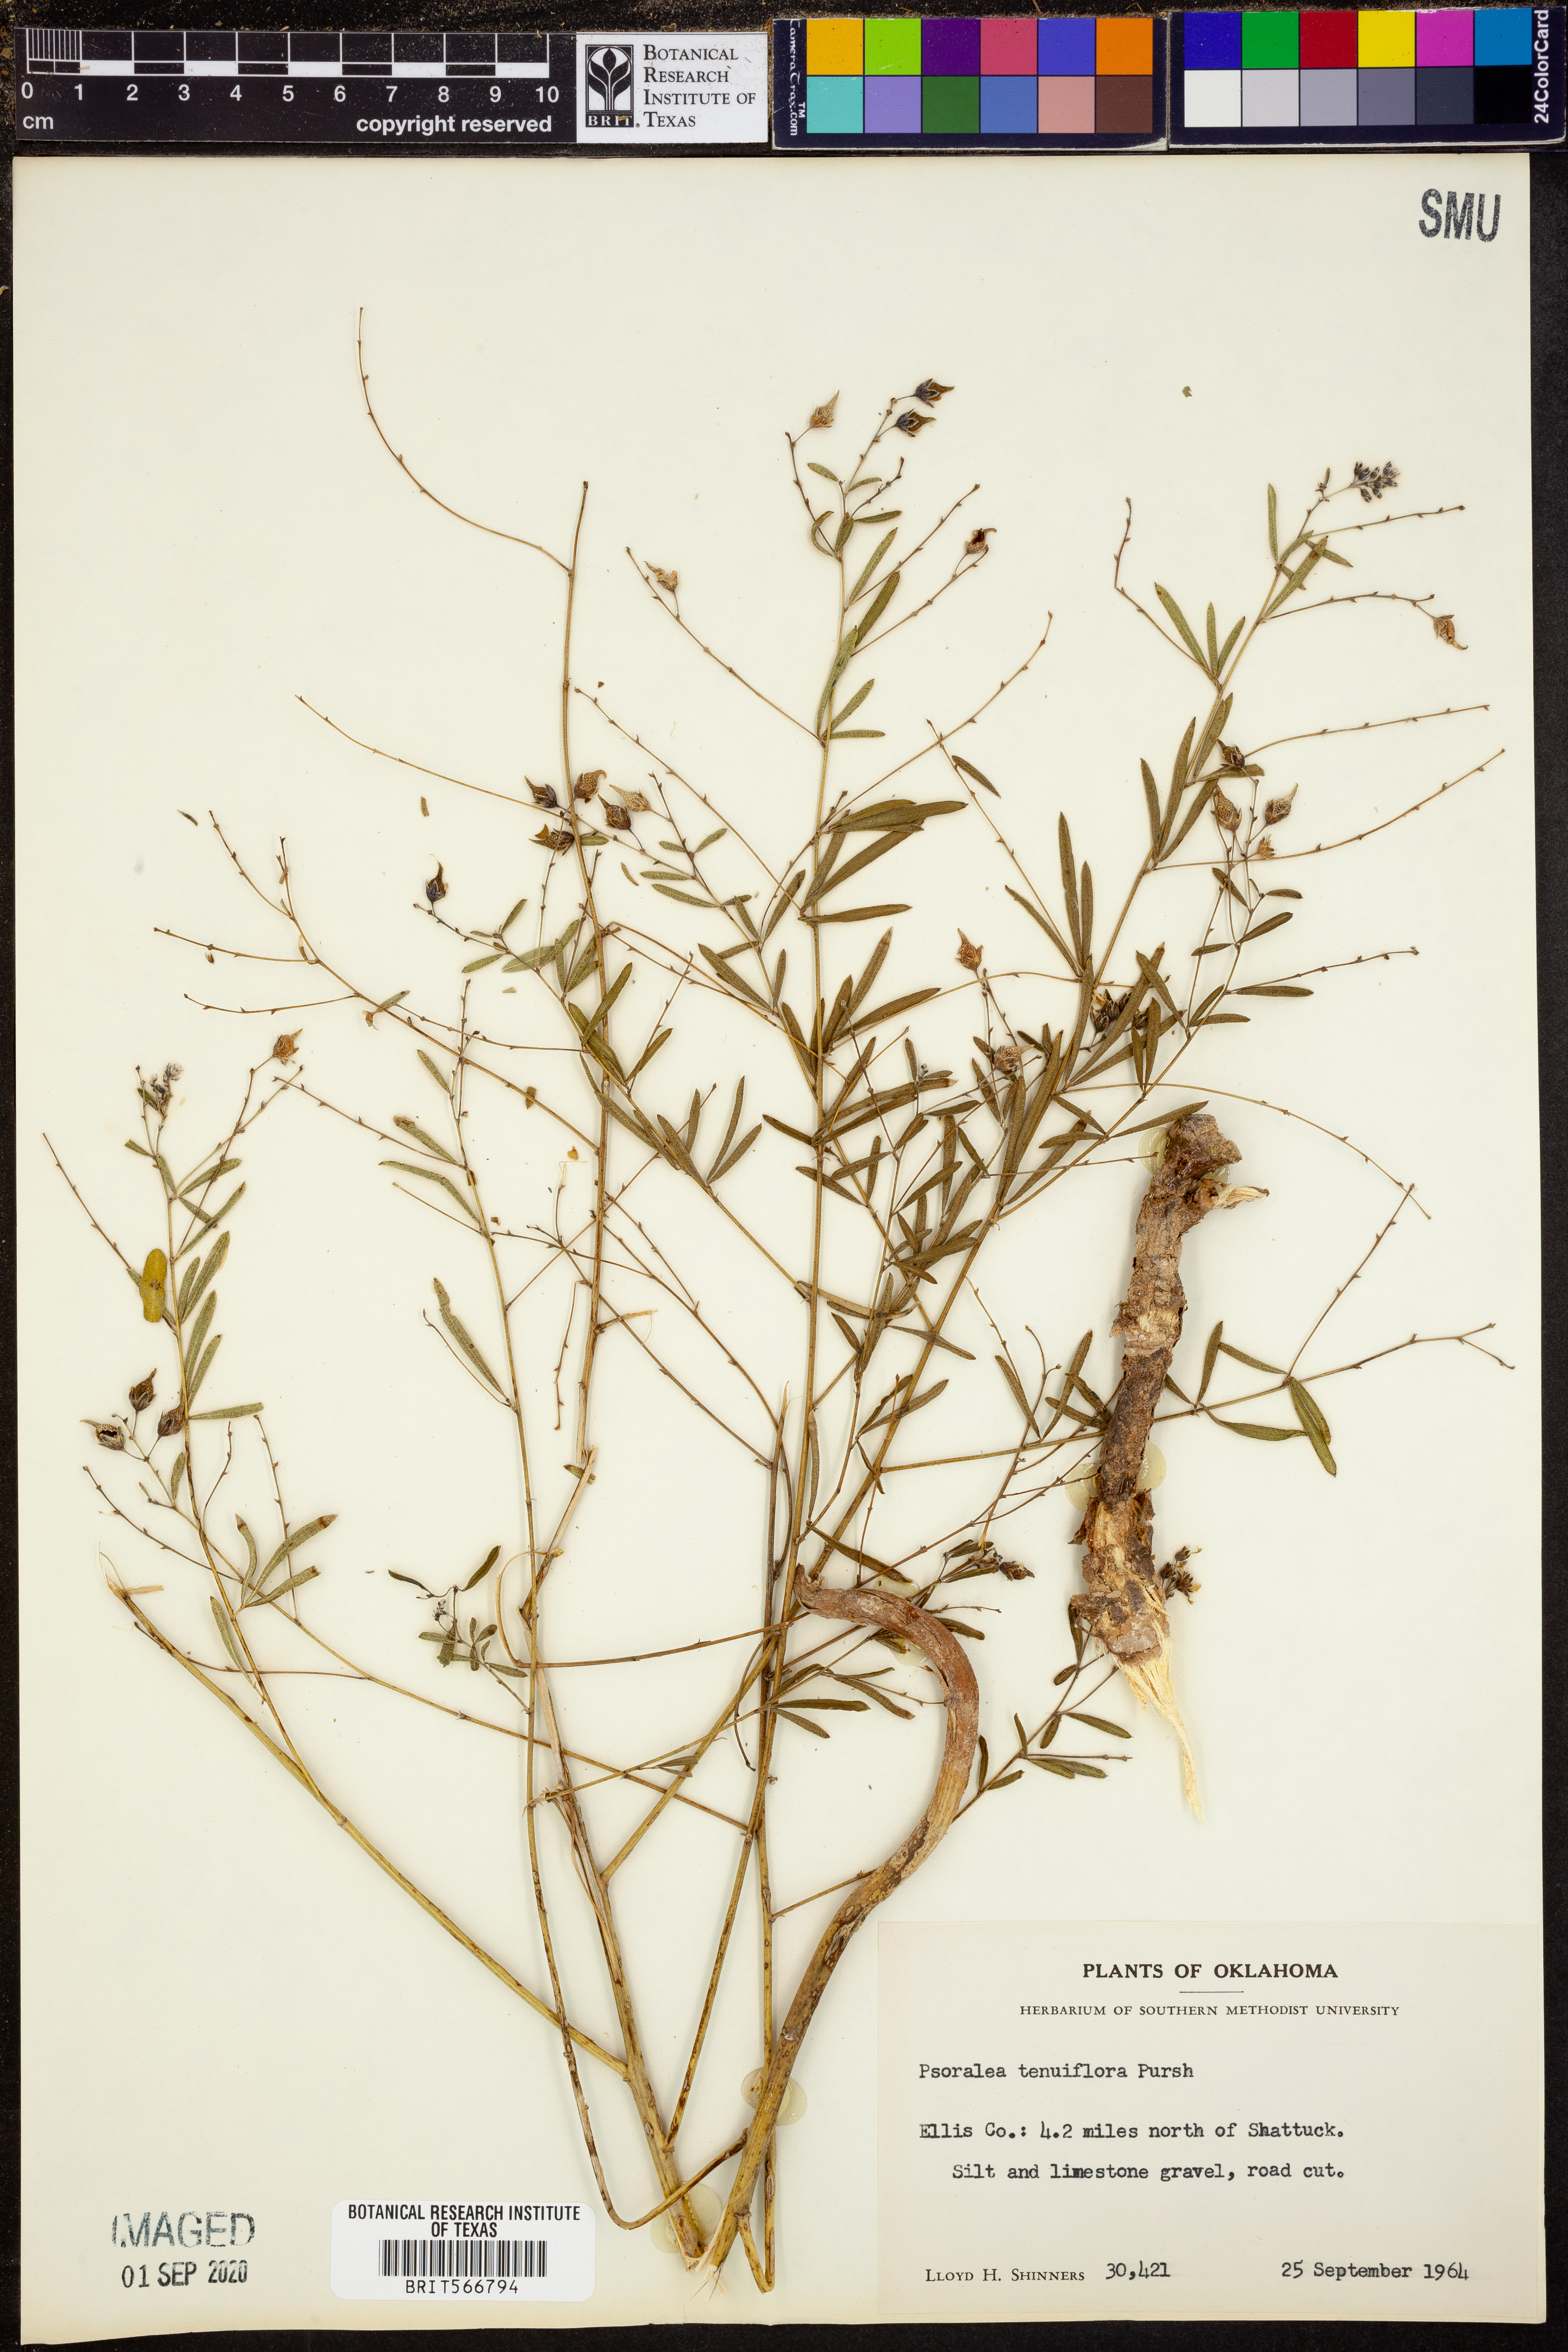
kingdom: Plantae
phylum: Tracheophyta
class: Magnoliopsida
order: Fabales
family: Fabaceae
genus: Pediomelum
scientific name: Pediomelum tenuiflorum
